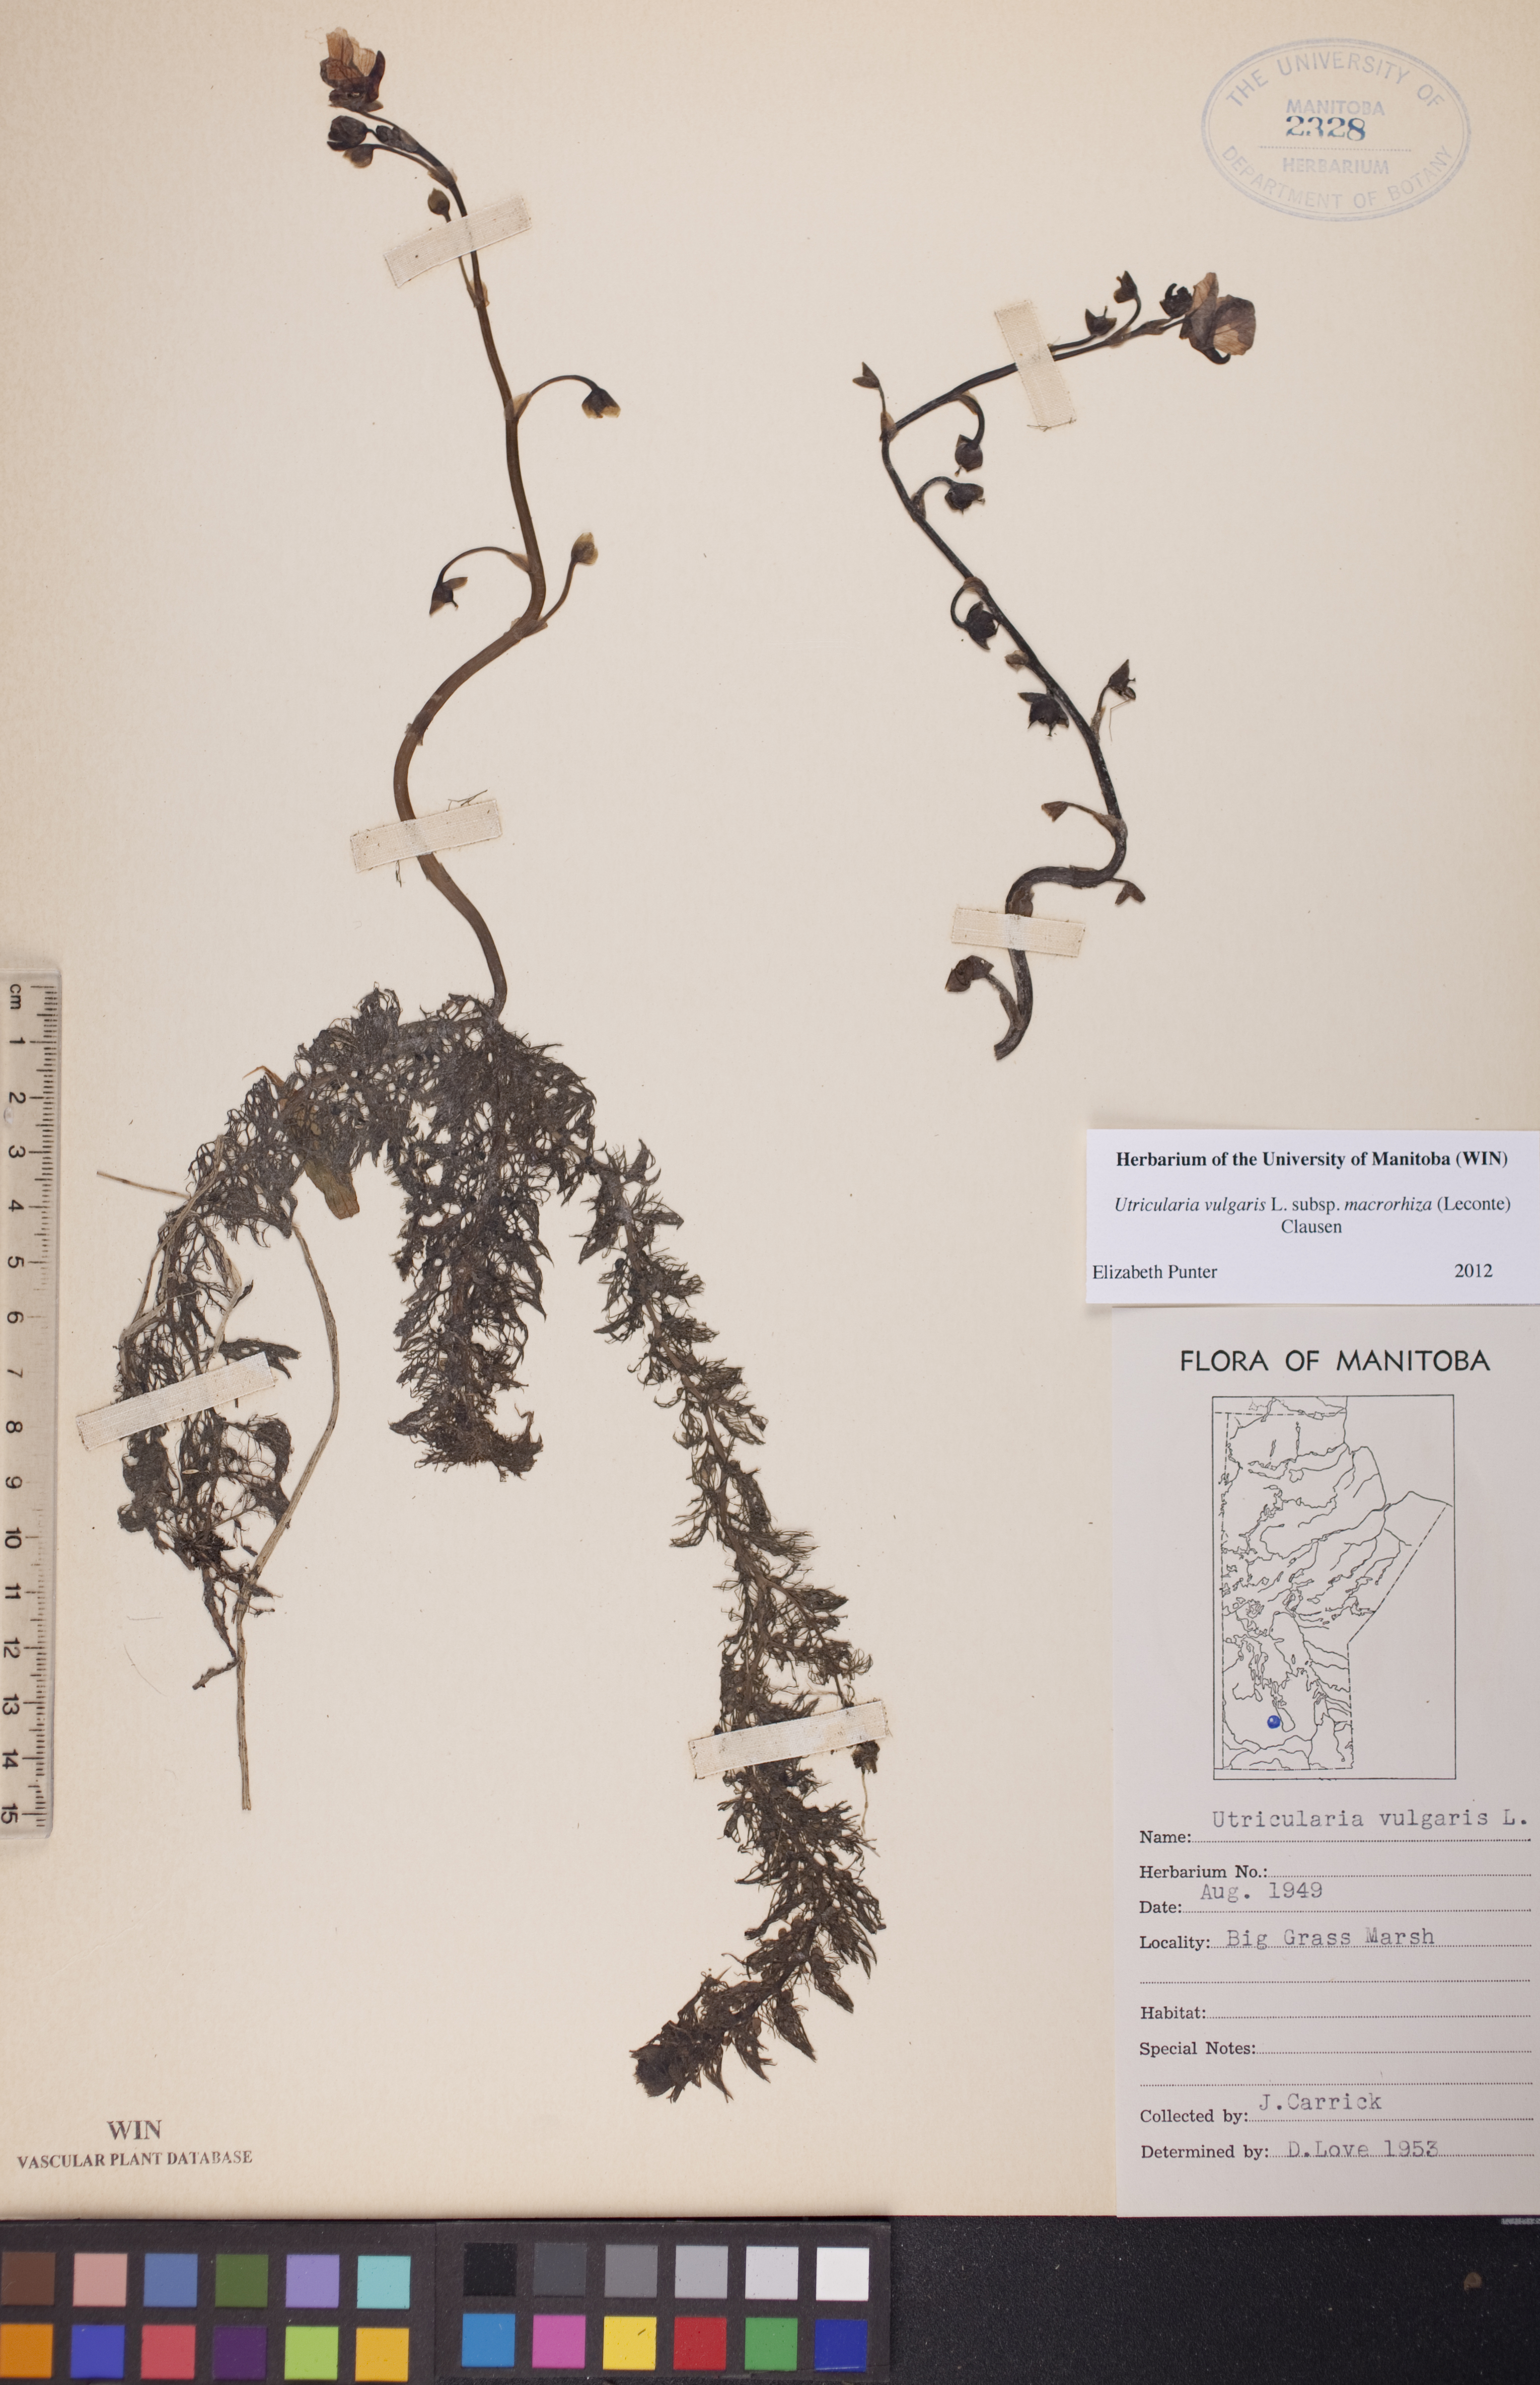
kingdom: Plantae
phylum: Tracheophyta
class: Magnoliopsida
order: Lamiales
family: Lentibulariaceae
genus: Utricularia
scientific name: Utricularia macrorhiza
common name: Common bladderwort
